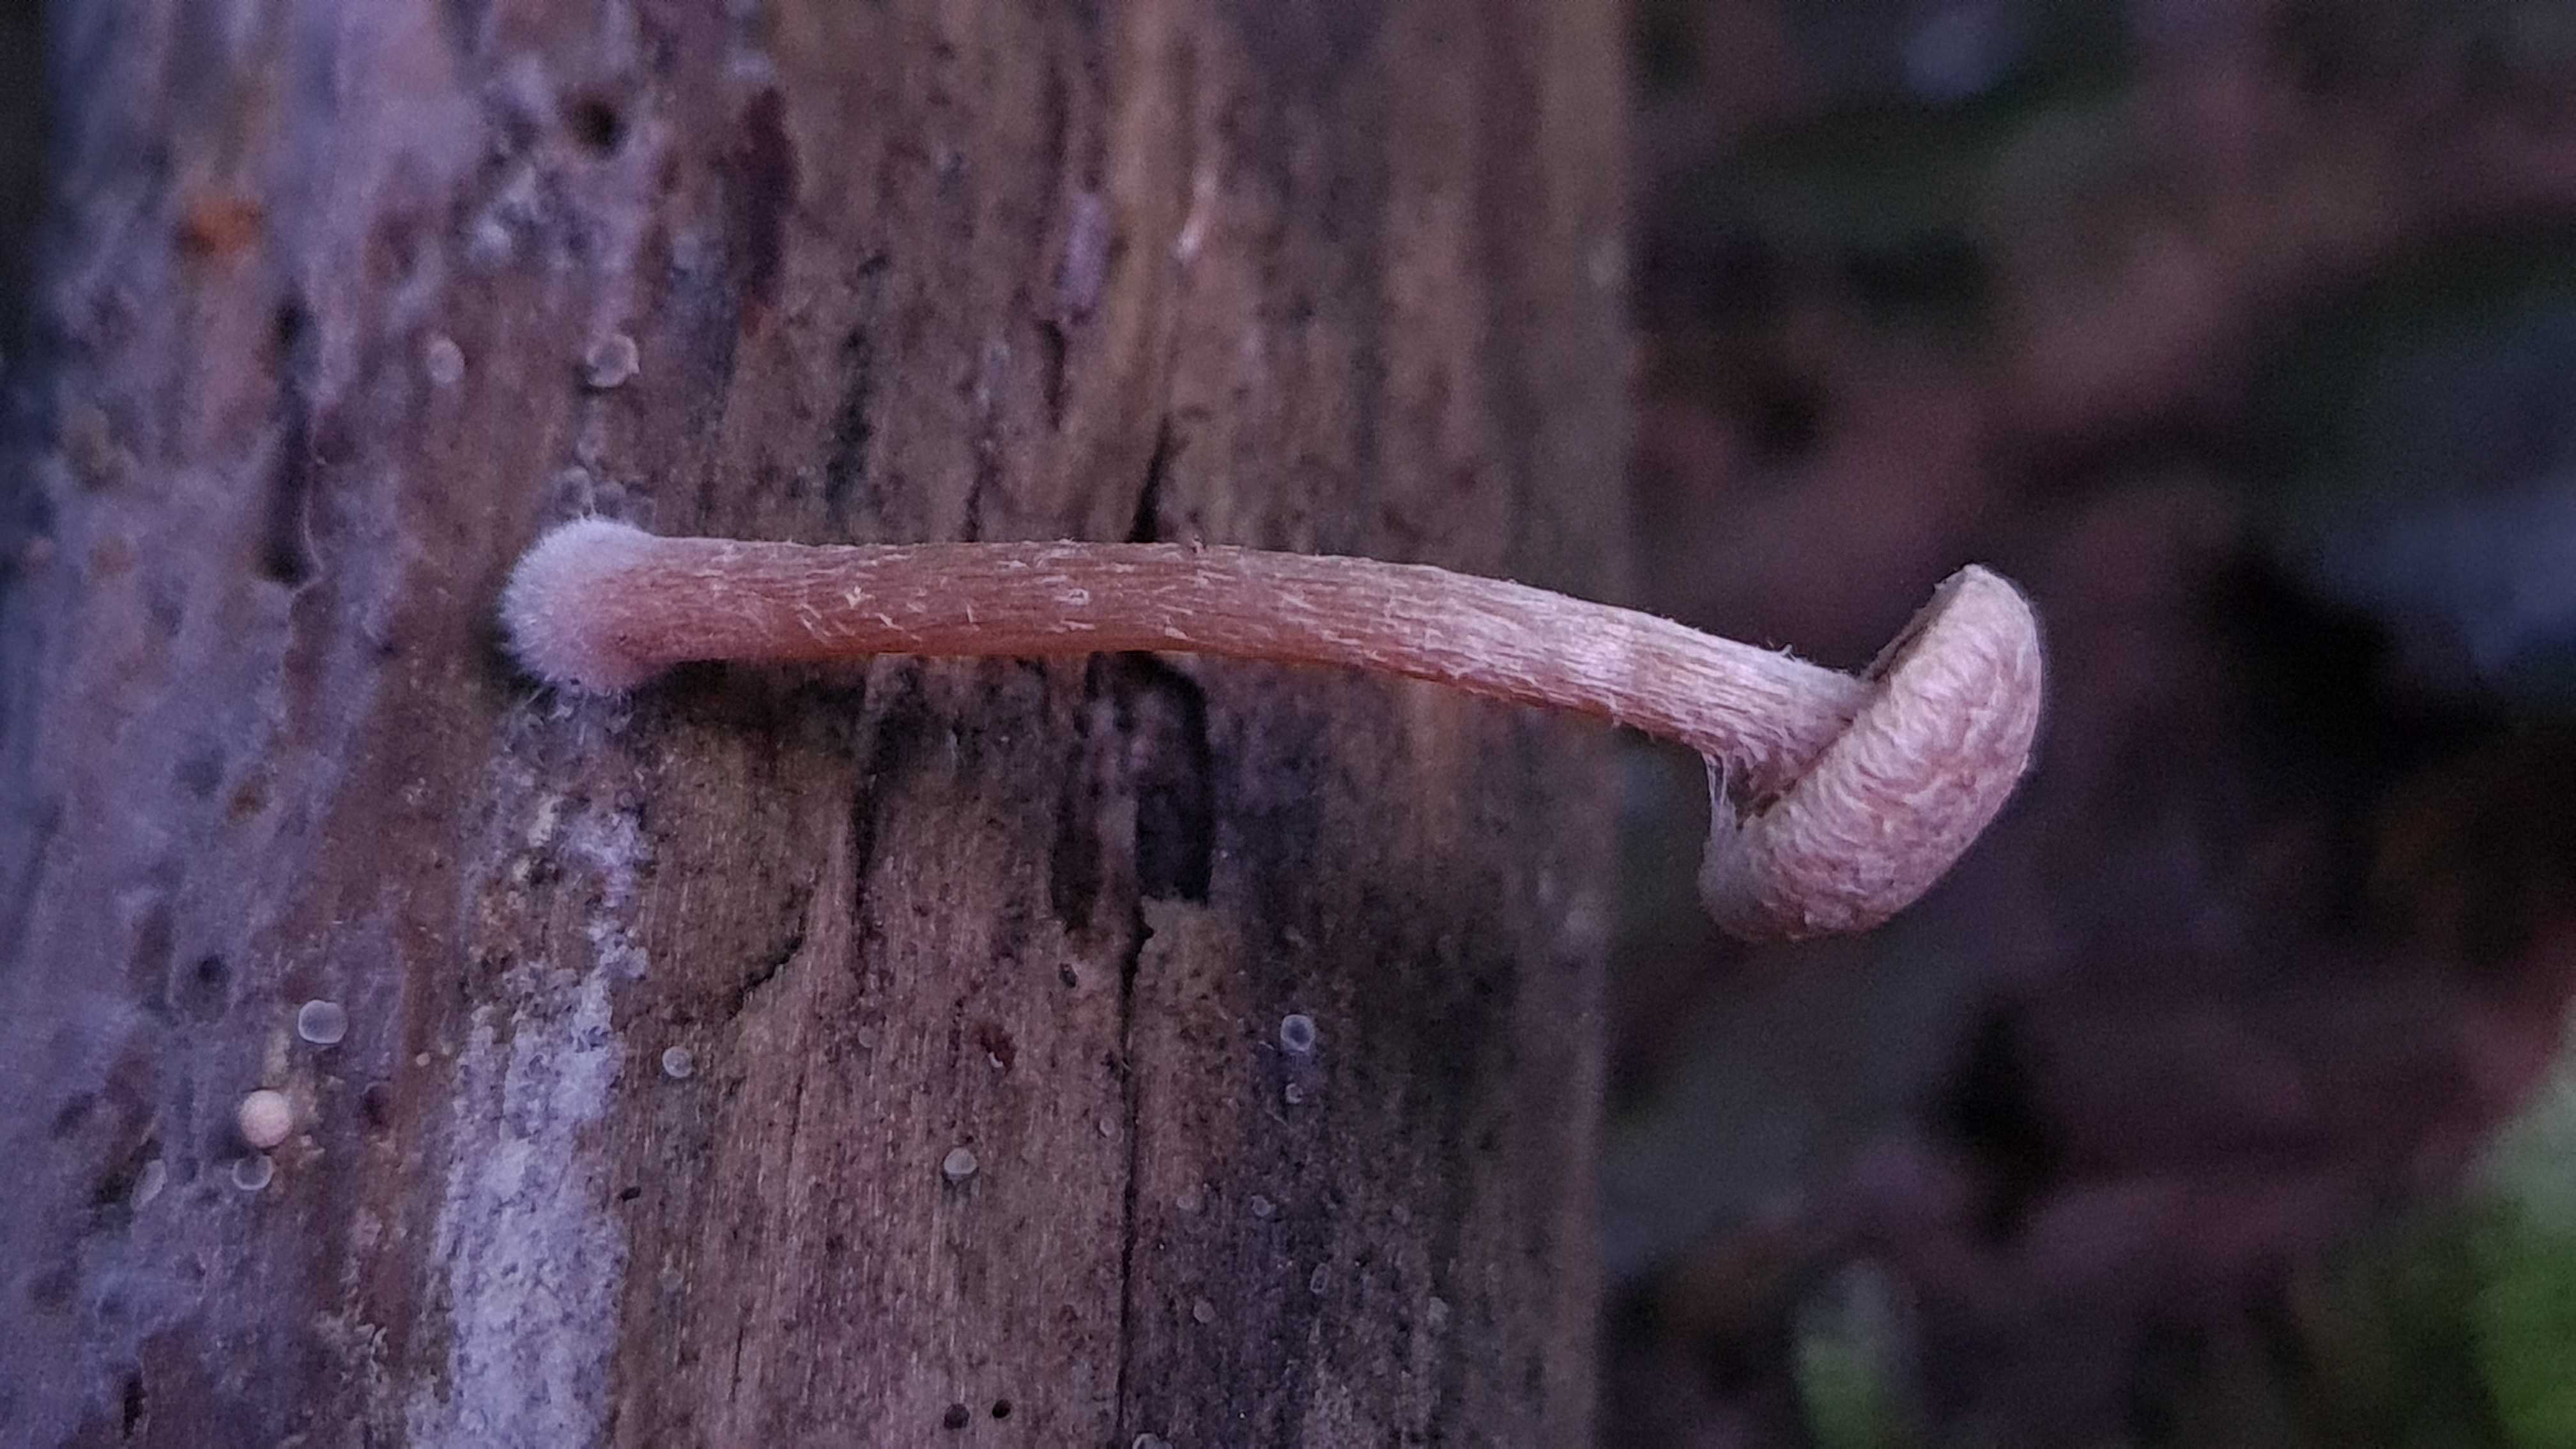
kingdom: Fungi
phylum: Basidiomycota
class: Agaricomycetes
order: Agaricales
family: Tubariaceae
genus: Tubaria
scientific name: Tubaria conspersa
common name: bleg fnughat
